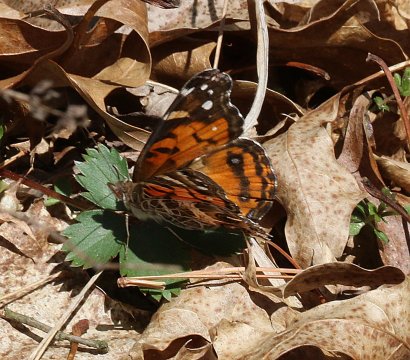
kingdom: Animalia
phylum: Arthropoda
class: Insecta
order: Lepidoptera
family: Nymphalidae
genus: Vanessa
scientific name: Vanessa virginiensis
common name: American Lady
